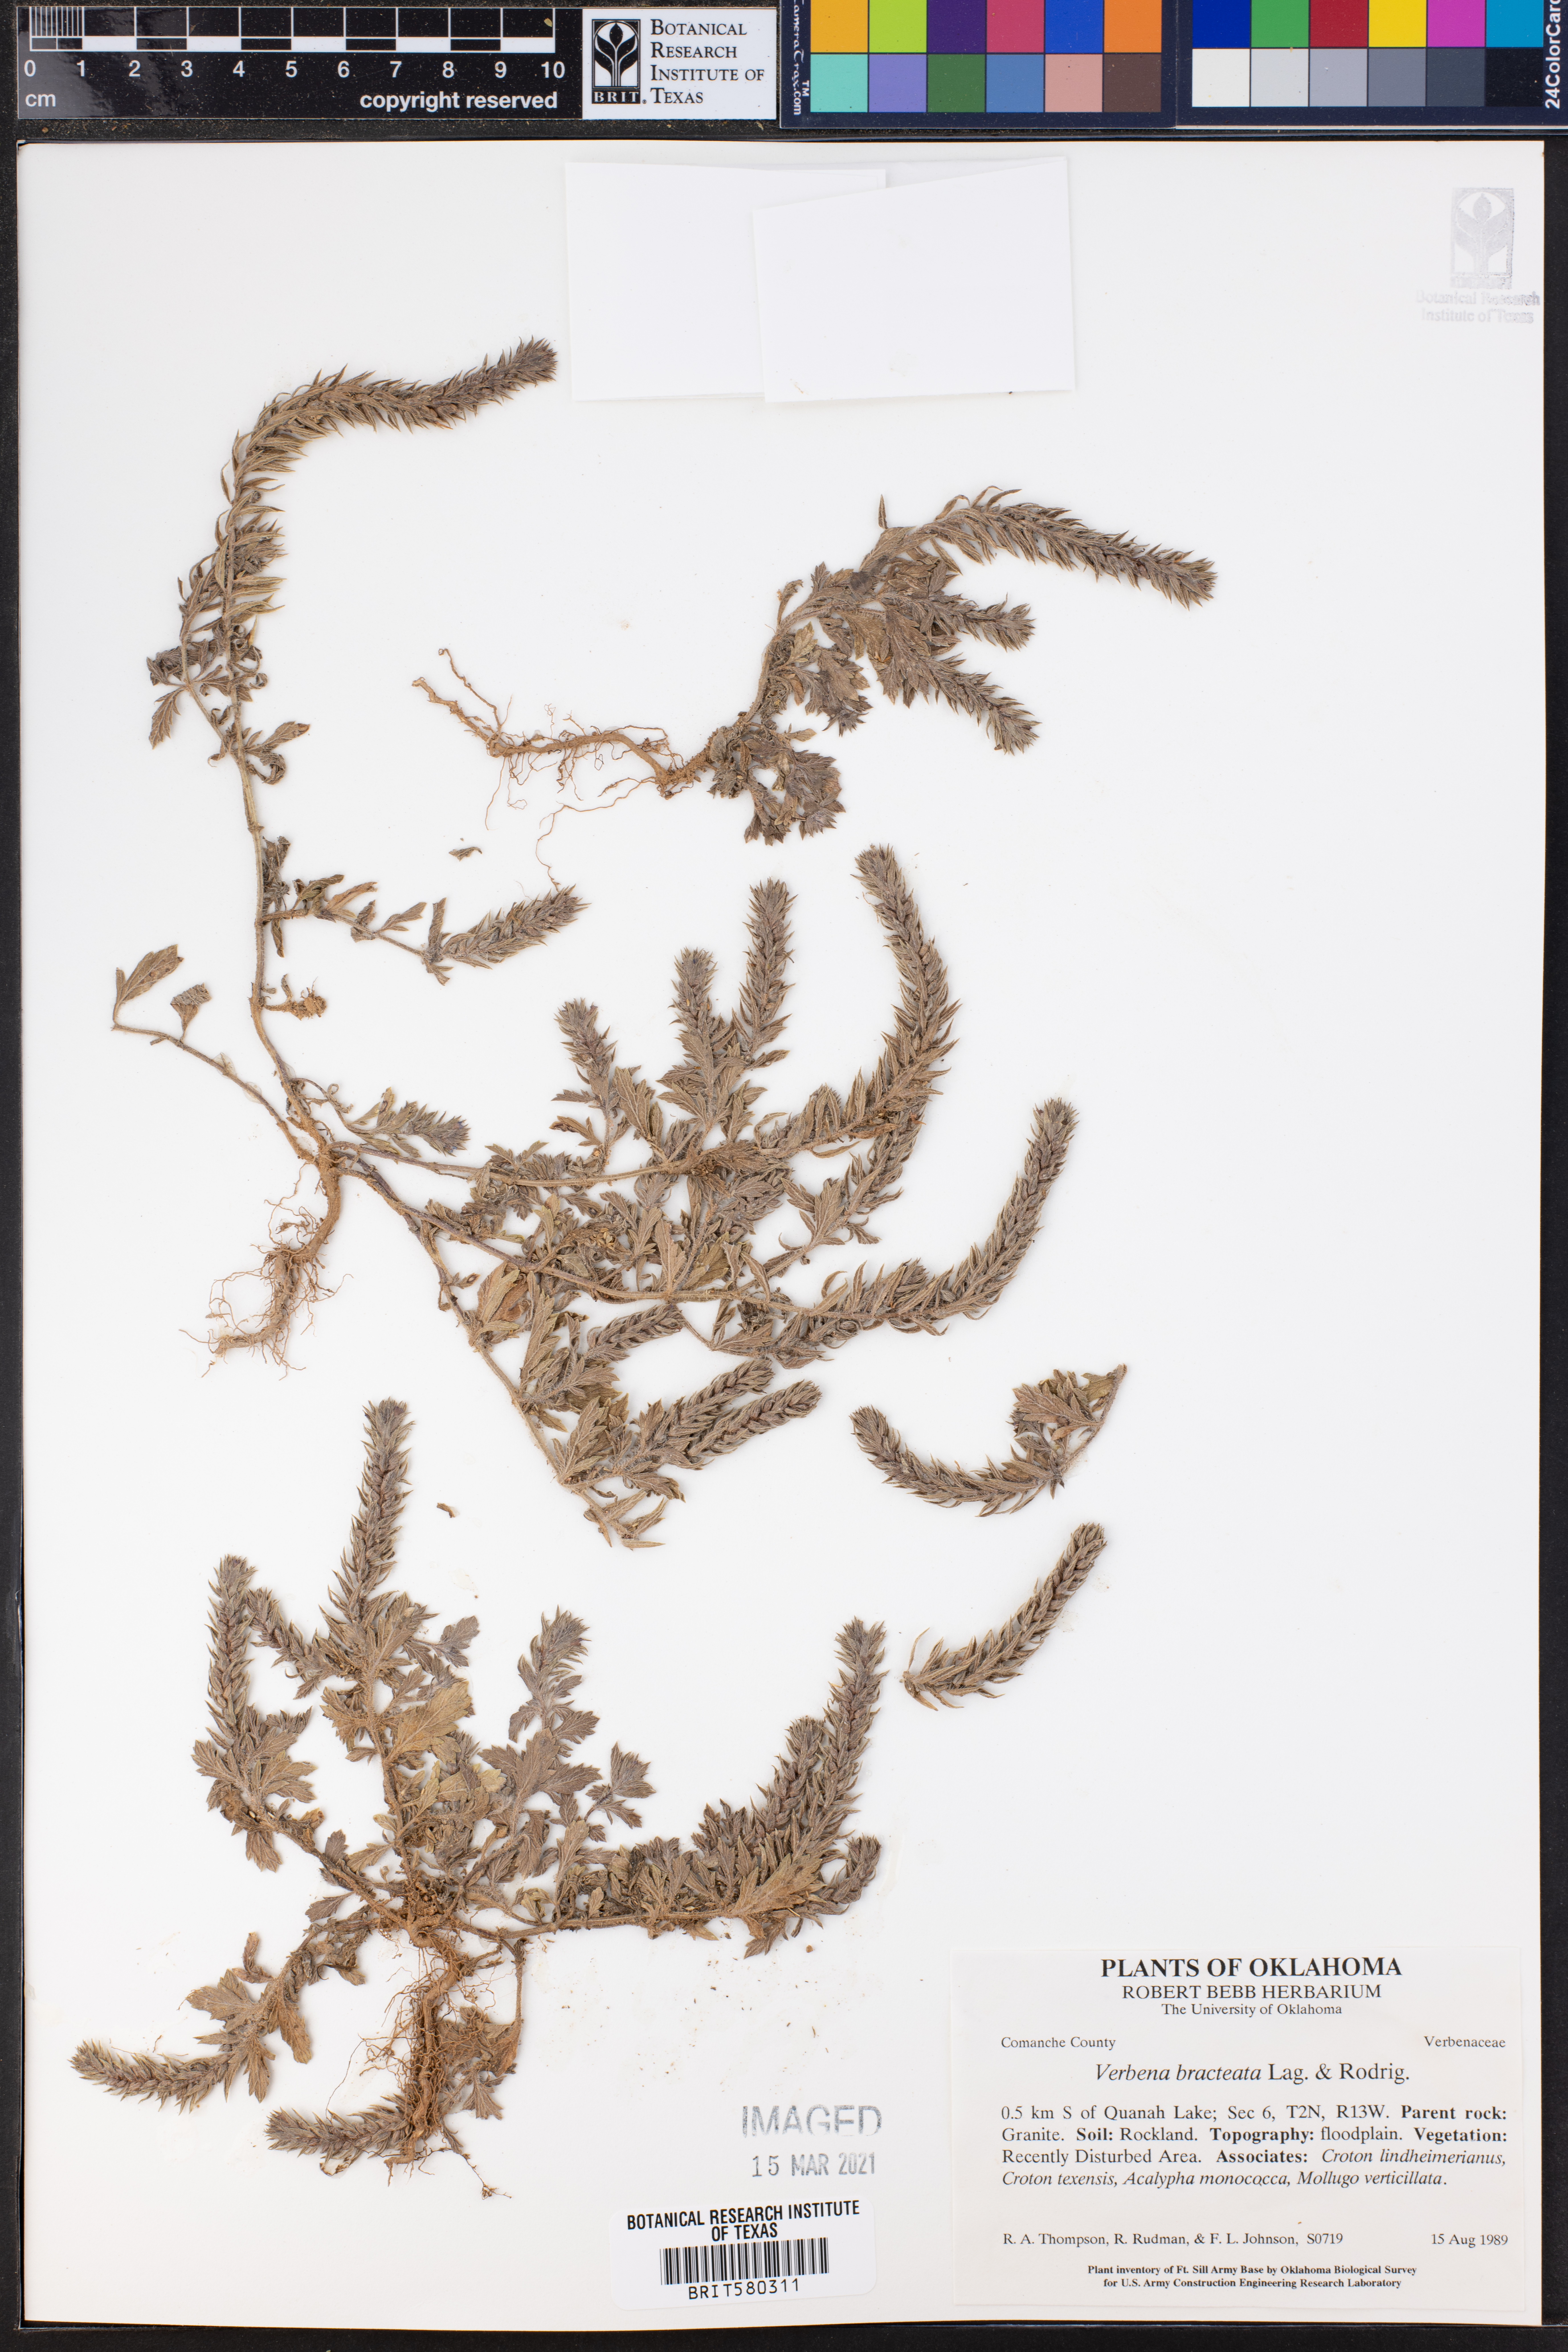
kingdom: Plantae
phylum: Tracheophyta
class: Magnoliopsida
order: Lamiales
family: Verbenaceae
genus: Verbena
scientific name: Verbena bracteata
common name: Bracted vervain
